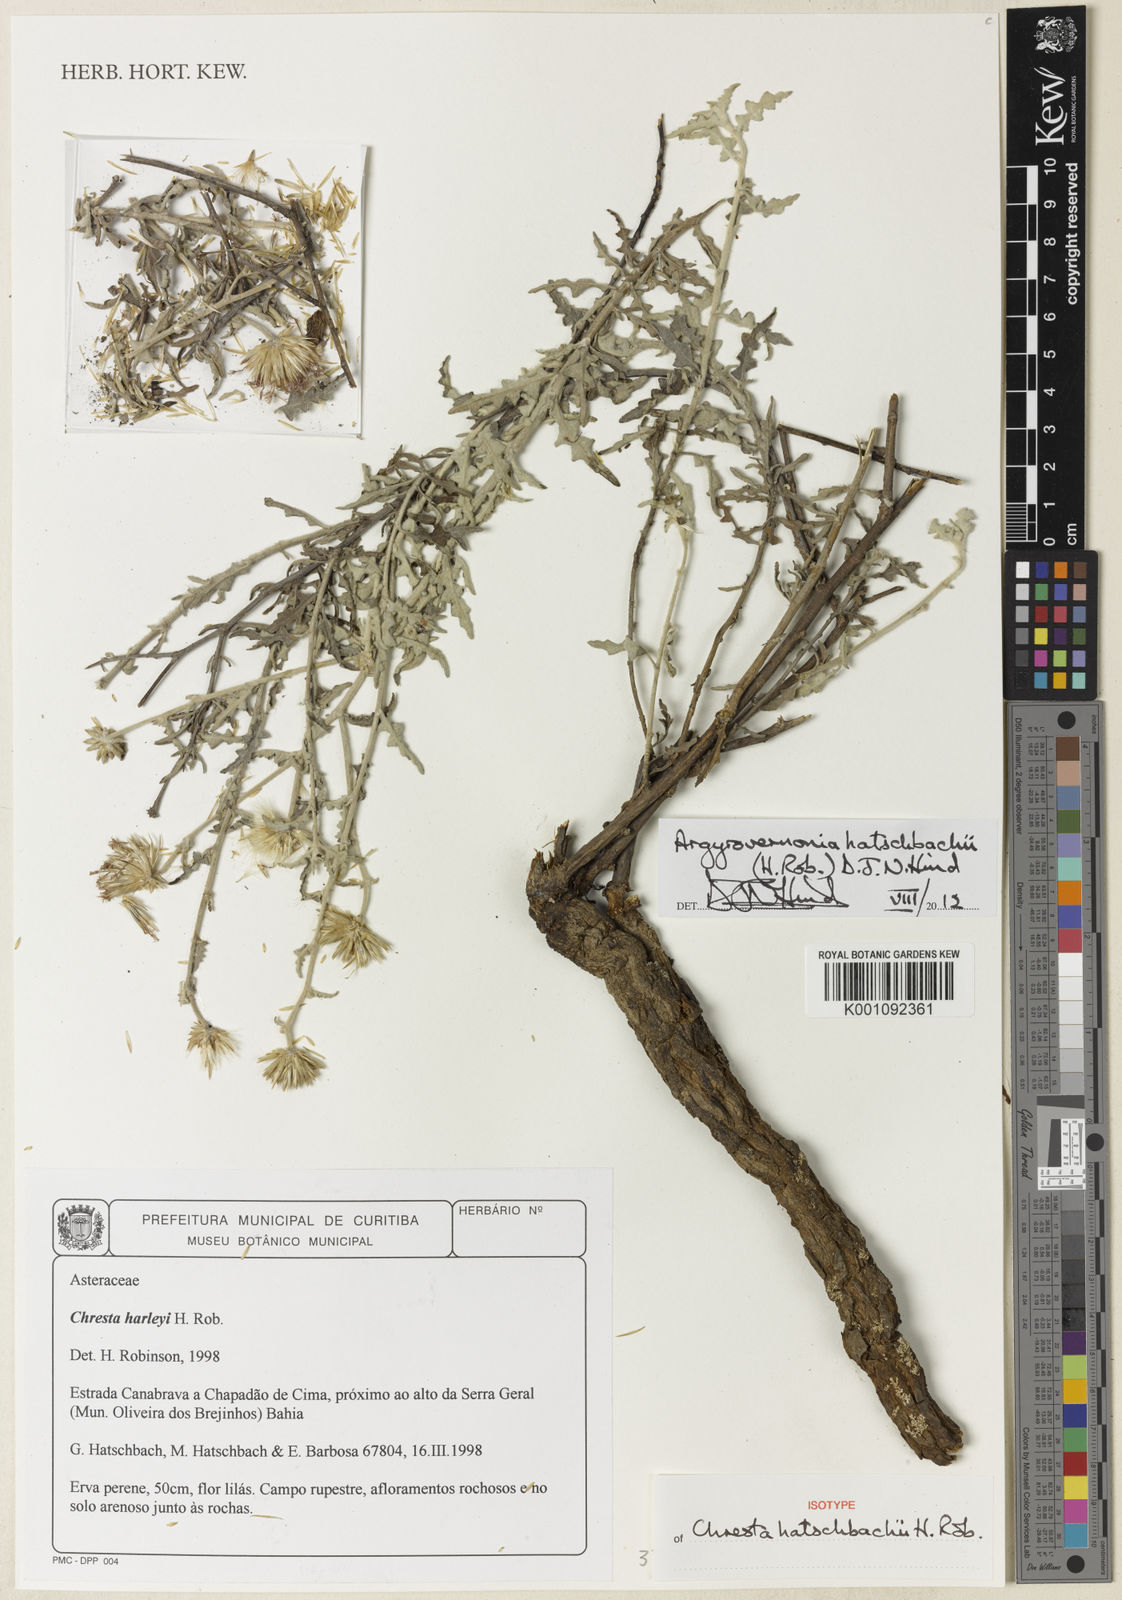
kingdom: Plantae
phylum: Tracheophyta
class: Magnoliopsida
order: Asterales
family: Asteraceae
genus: Chresta
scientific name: Chresta
